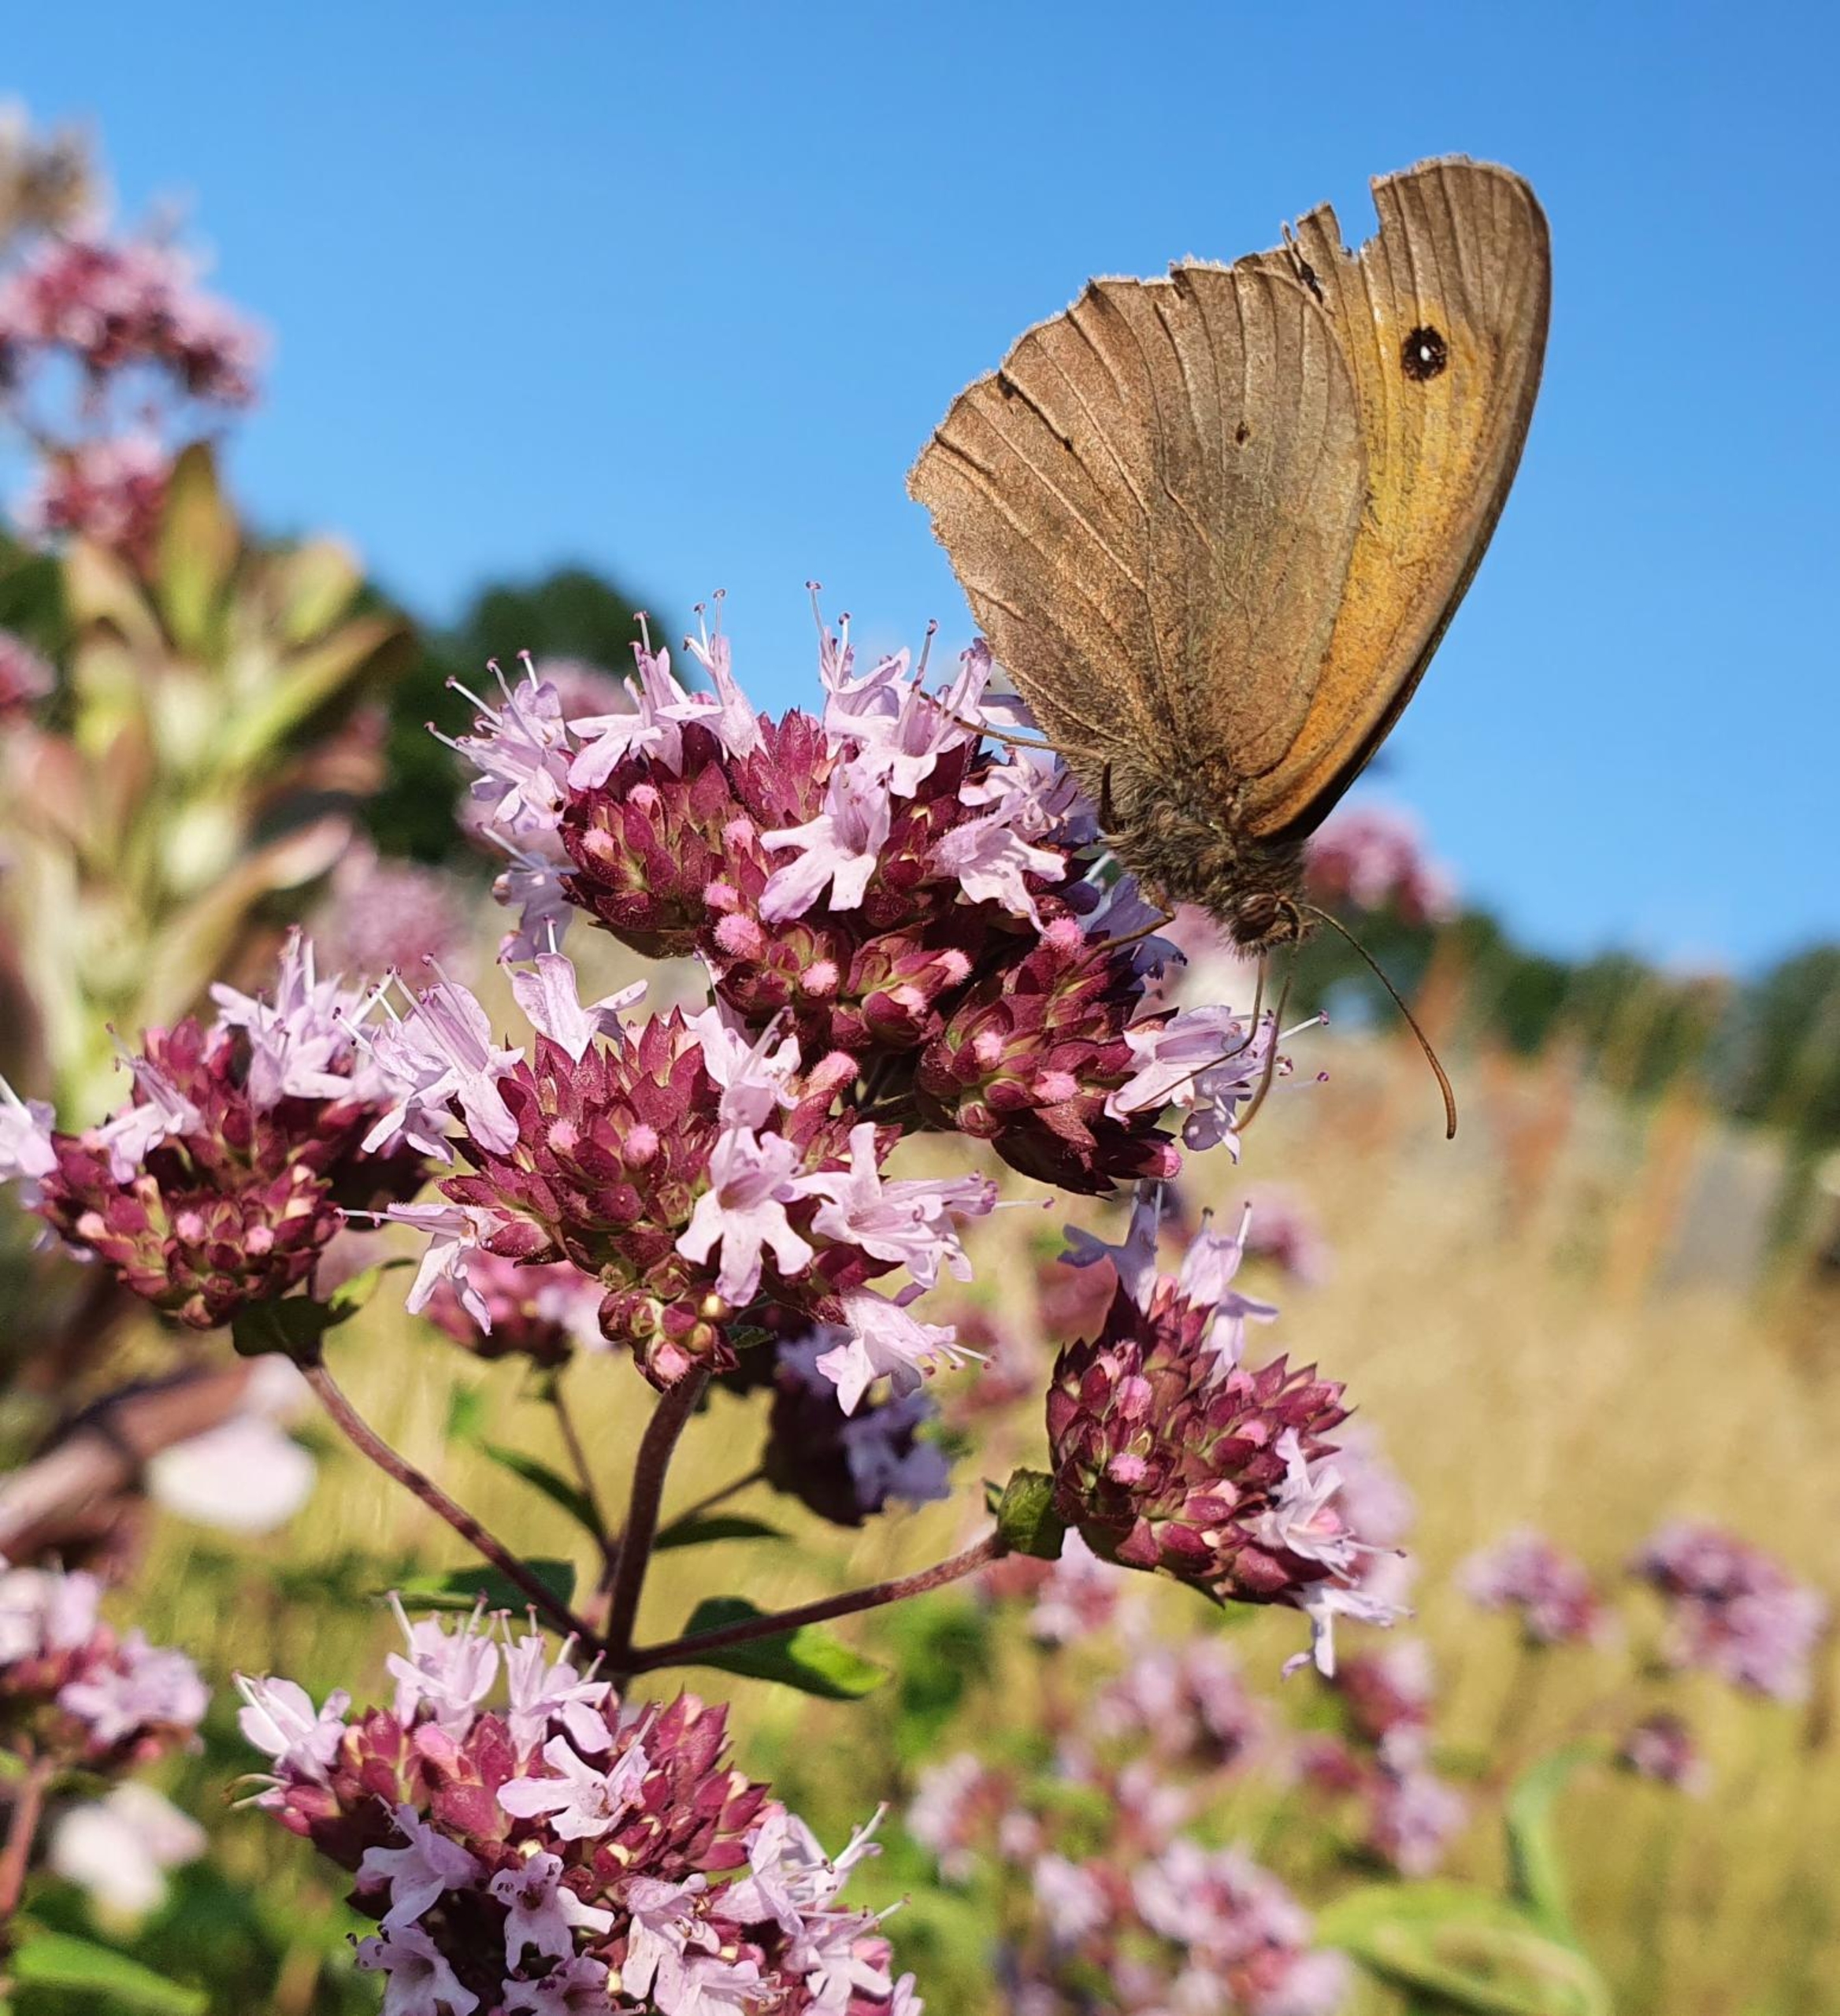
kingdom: Animalia
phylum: Arthropoda
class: Insecta
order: Lepidoptera
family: Nymphalidae
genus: Maniola
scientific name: Maniola jurtina
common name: Græsrandøje
